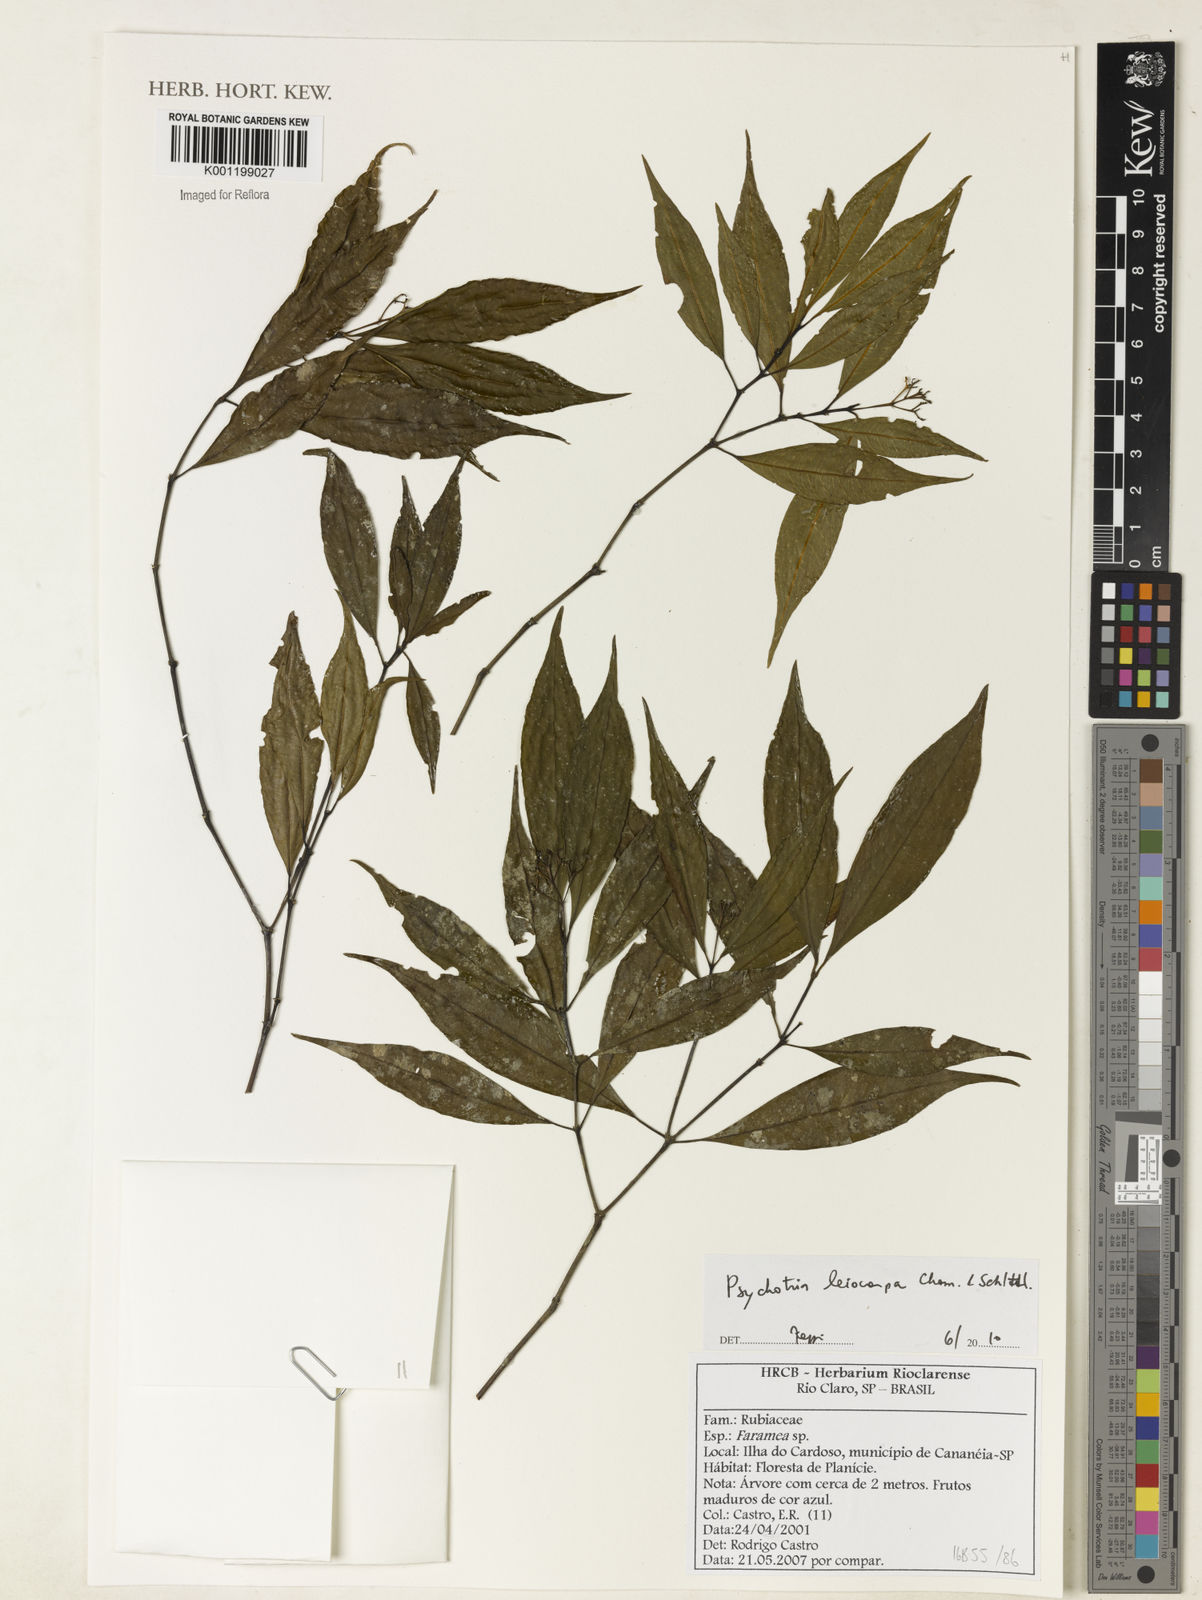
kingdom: Plantae
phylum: Tracheophyta
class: Magnoliopsida
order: Gentianales
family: Rubiaceae
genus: Psychotria
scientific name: Psychotria leiocarpa
